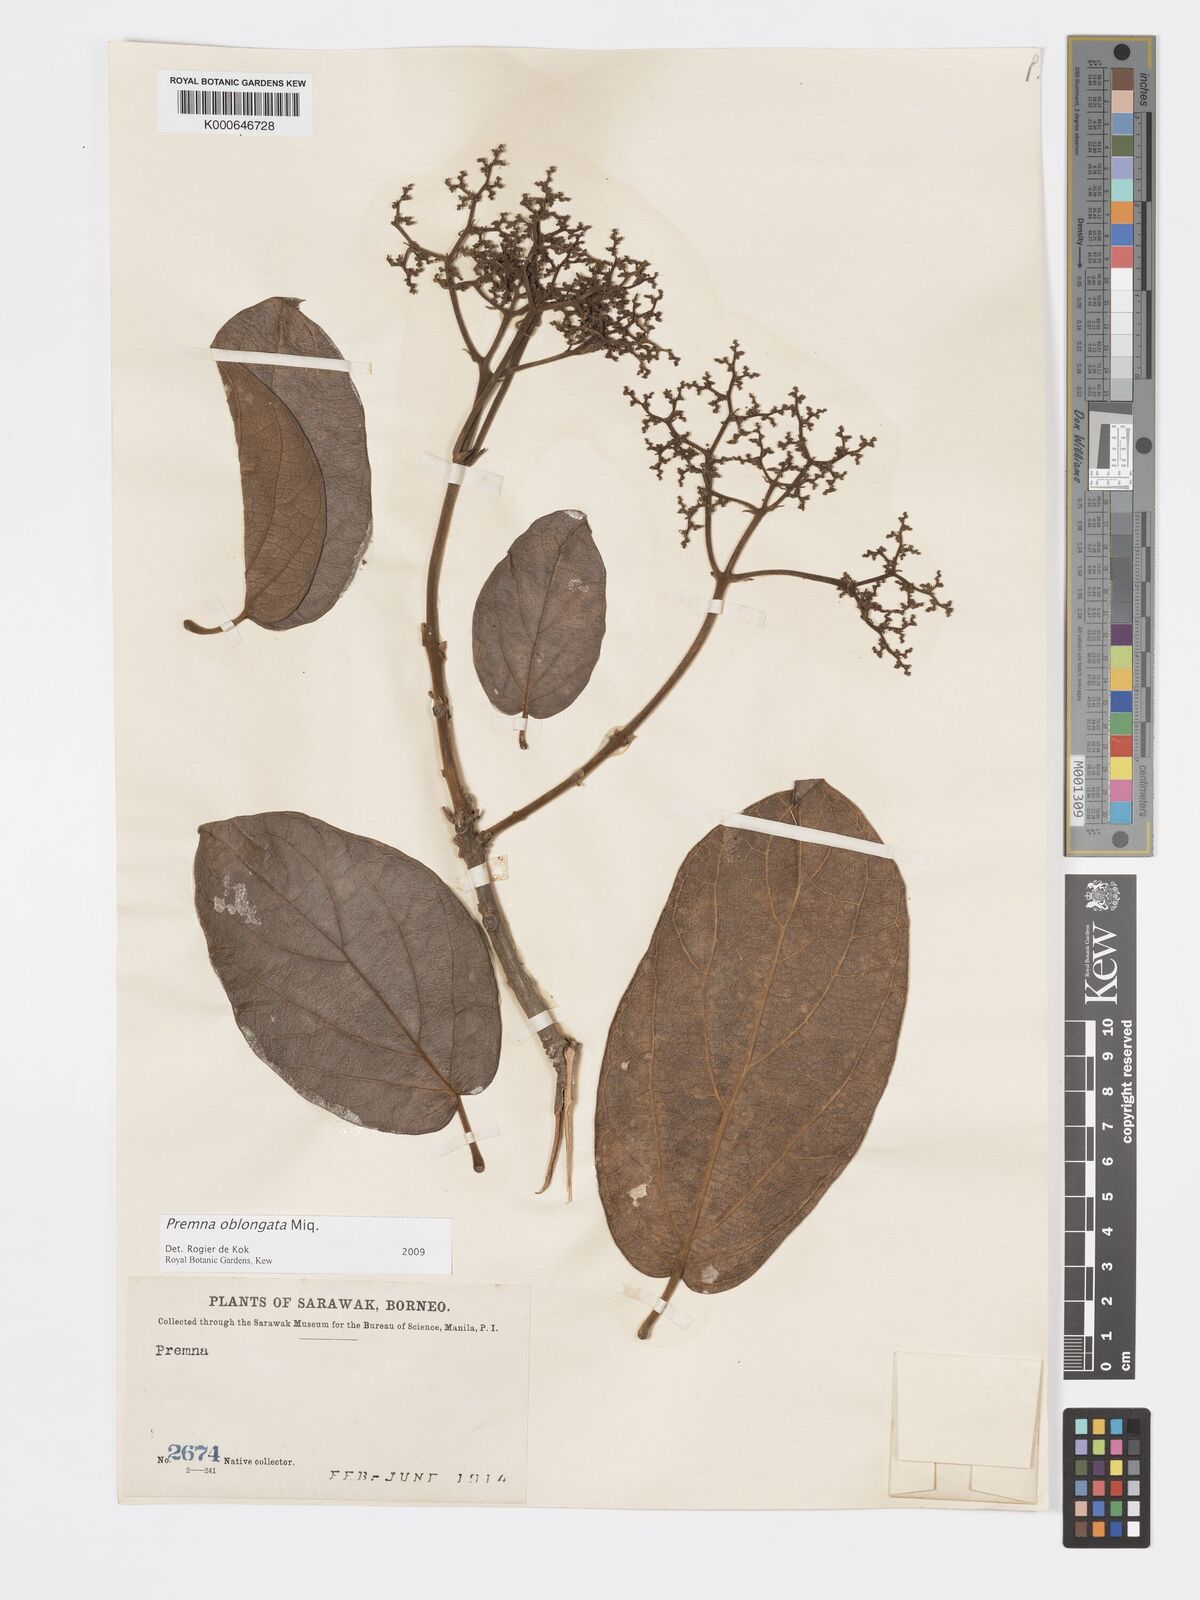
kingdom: Plantae
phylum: Tracheophyta
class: Magnoliopsida
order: Lamiales
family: Lamiaceae
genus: Premna
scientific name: Premna oblongata
